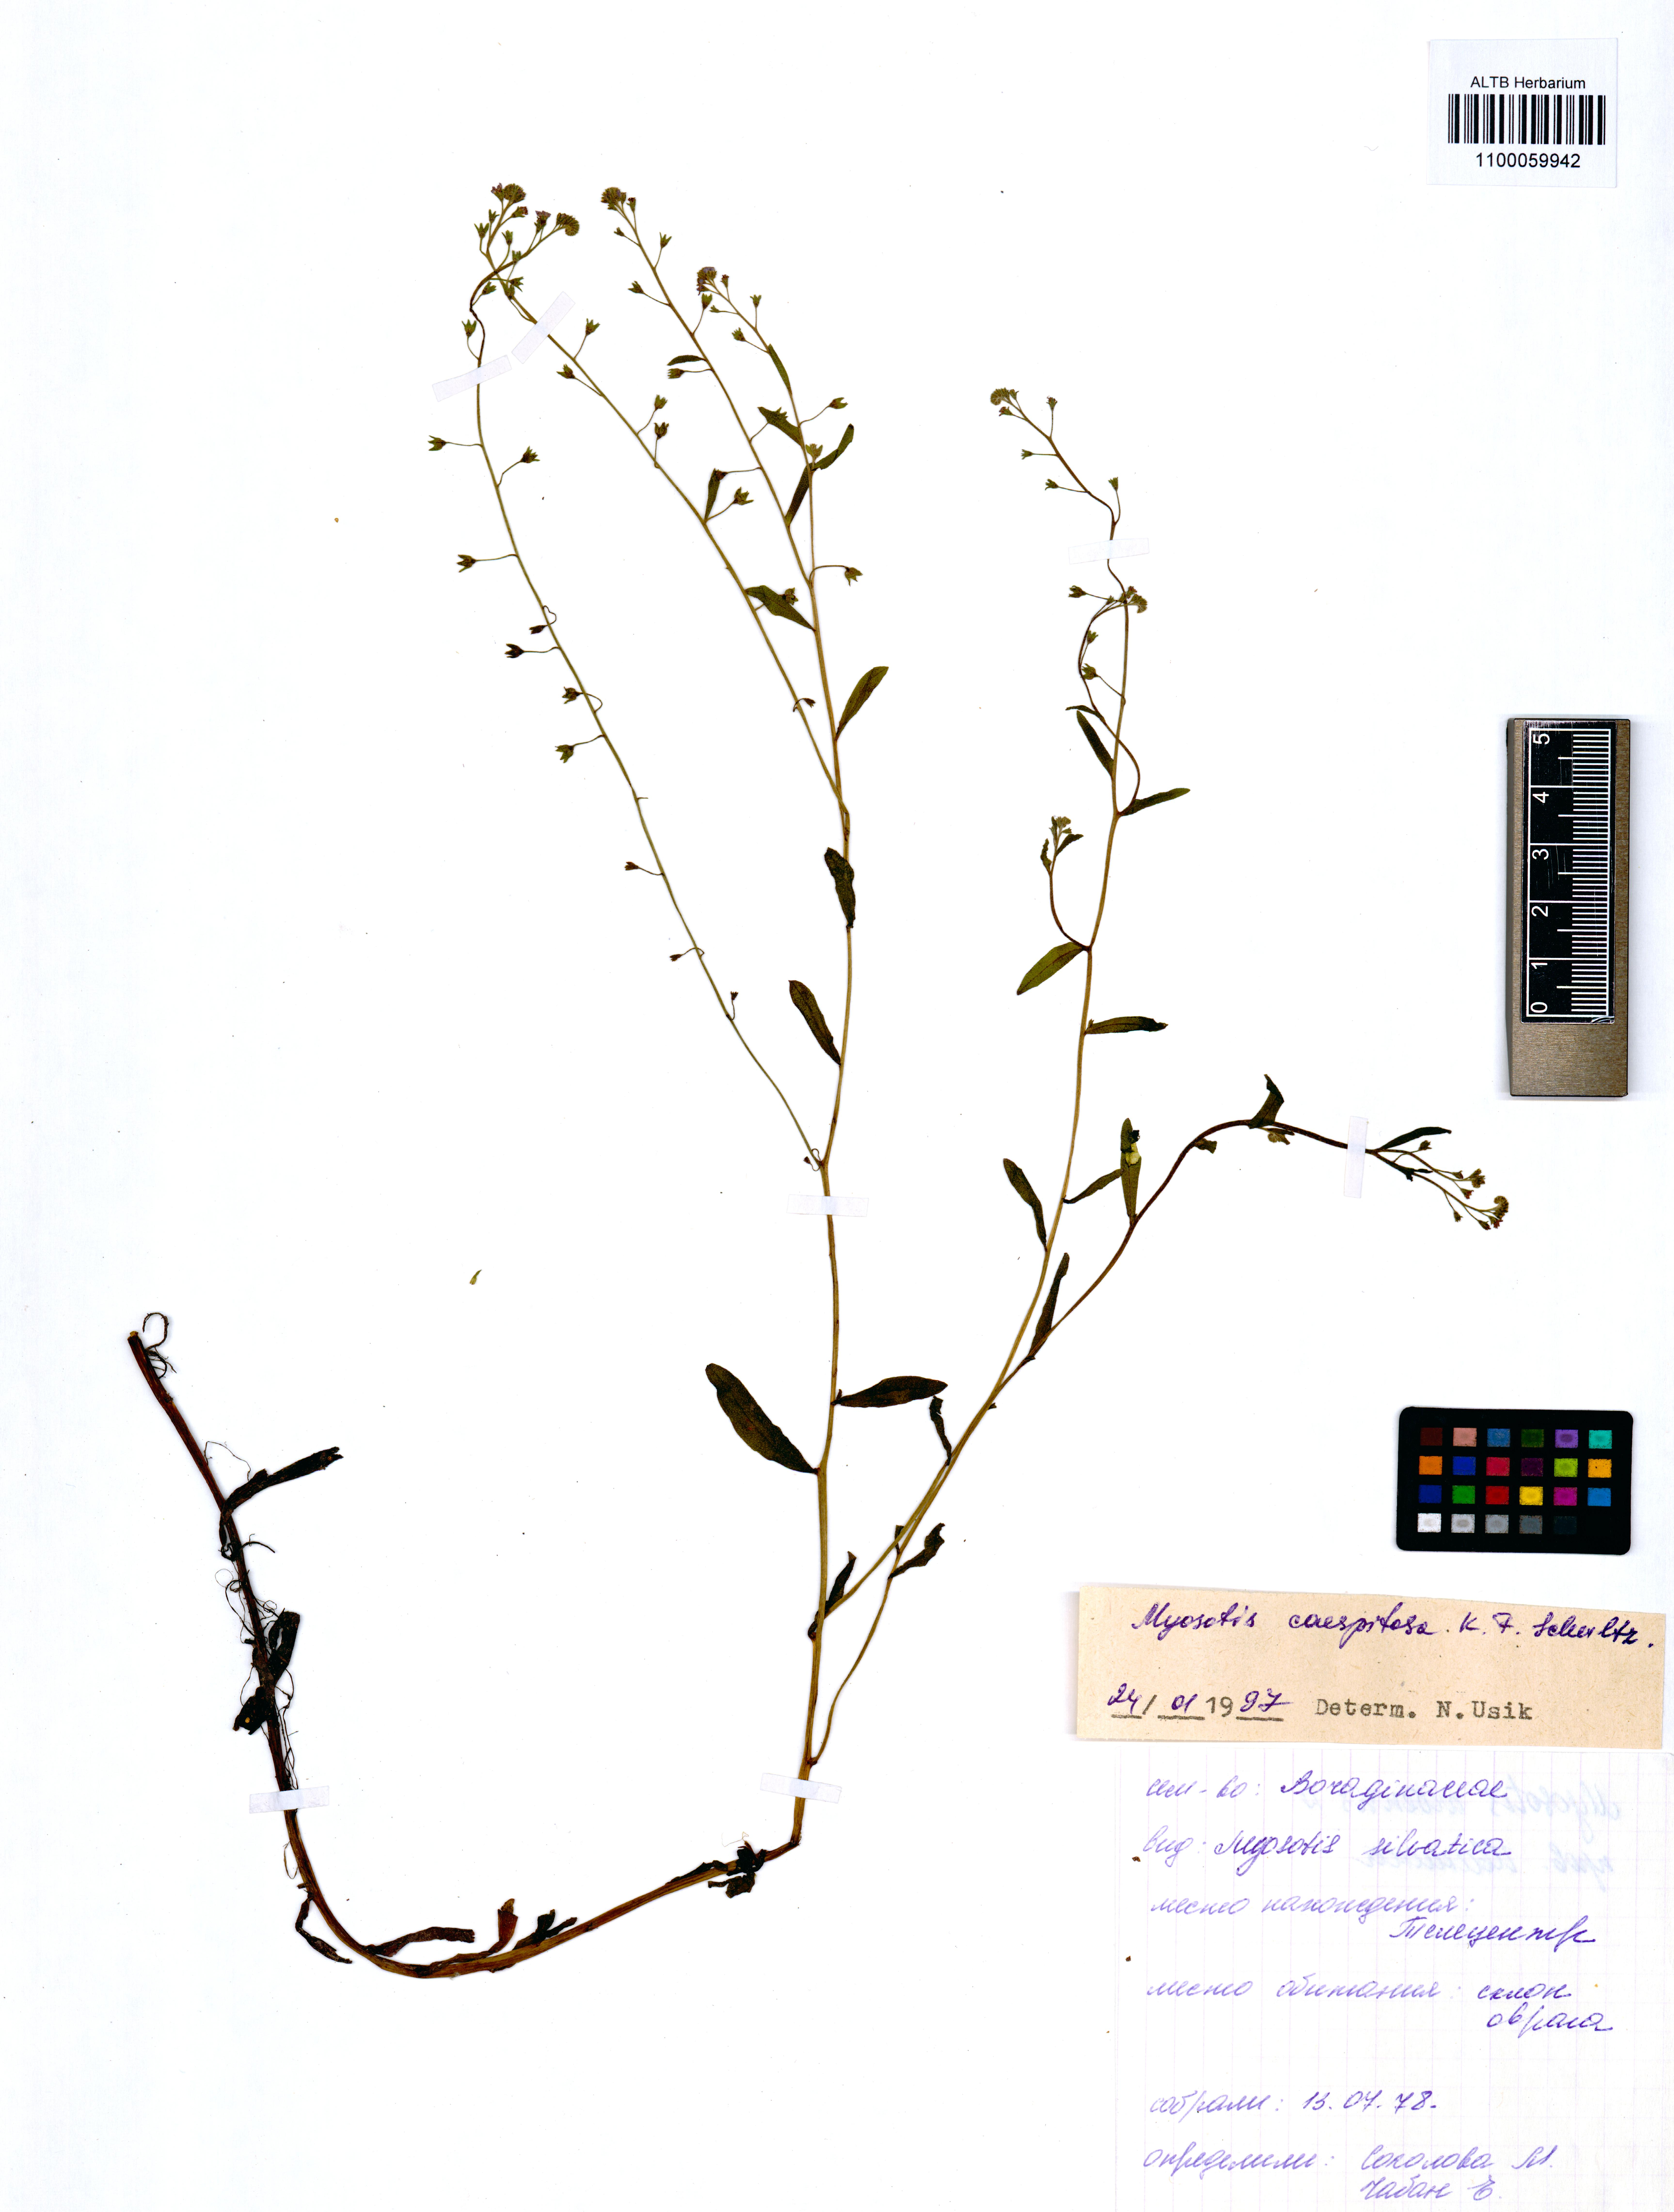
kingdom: Plantae
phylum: Tracheophyta
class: Magnoliopsida
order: Boraginales
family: Boraginaceae
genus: Myosotis
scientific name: Myosotis laxa
